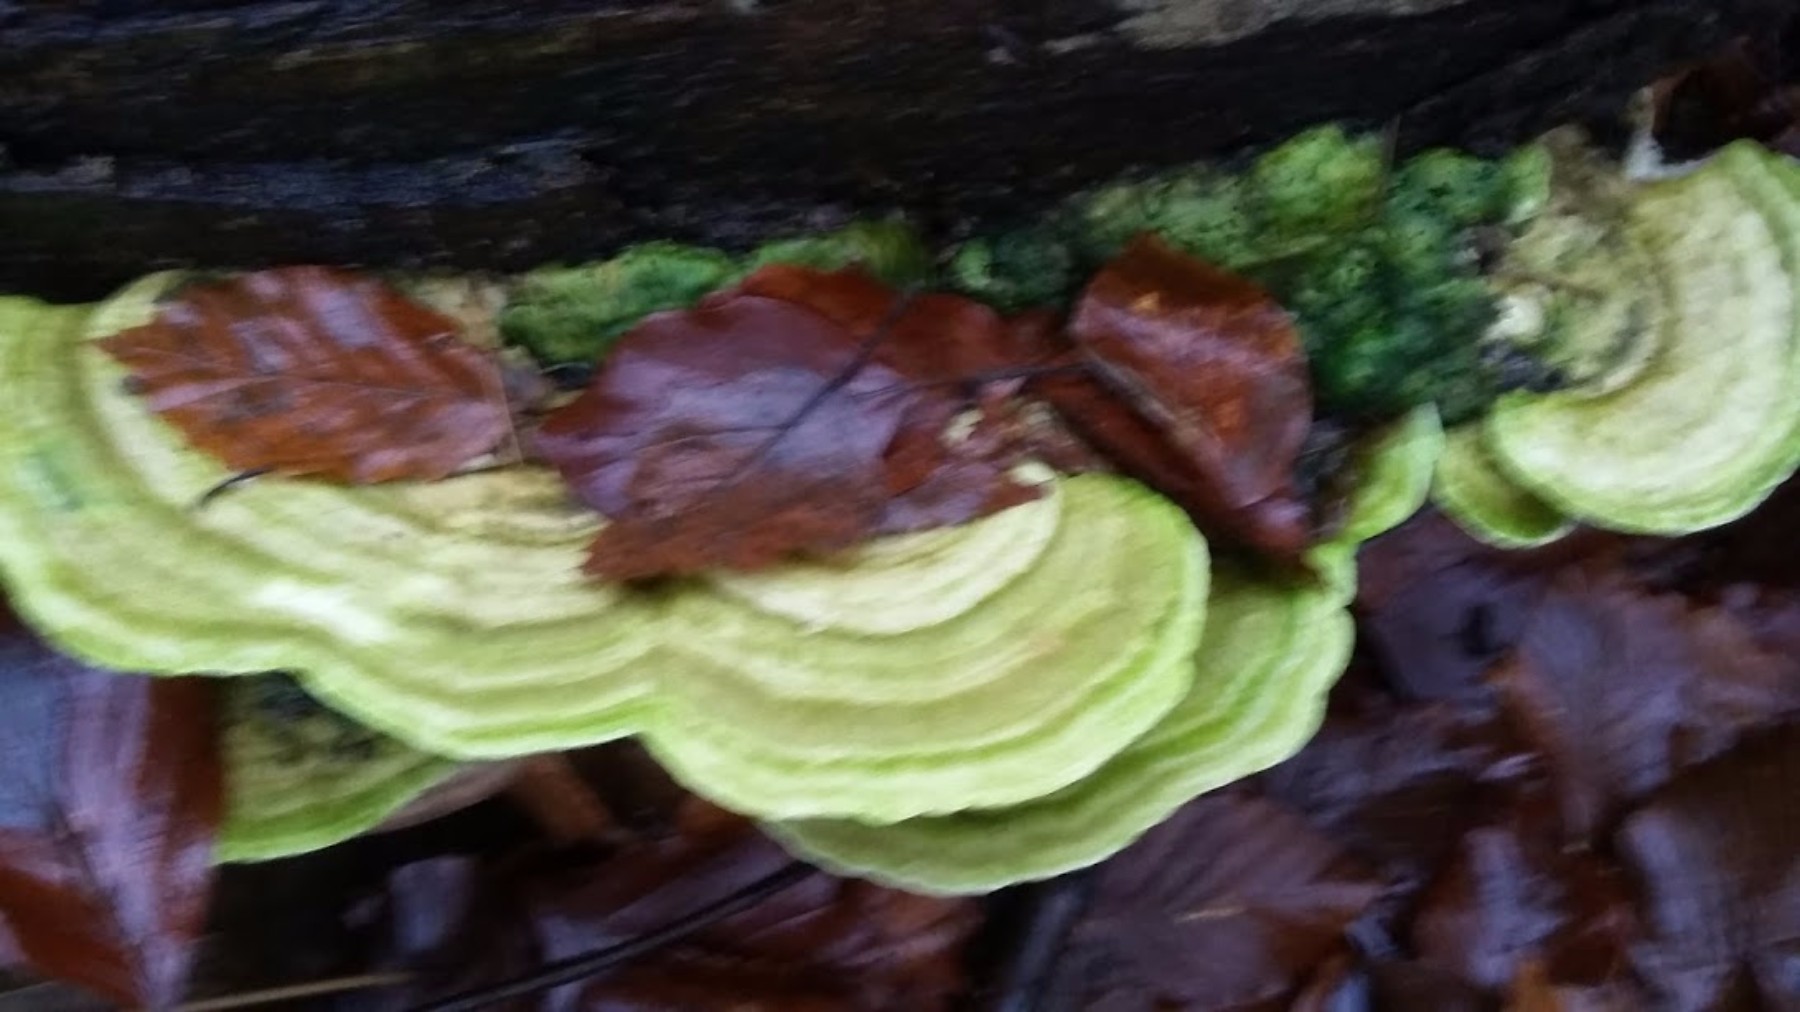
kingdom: Fungi
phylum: Basidiomycota
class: Agaricomycetes
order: Polyporales
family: Polyporaceae
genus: Trametes
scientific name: Trametes gibbosa
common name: puklet læderporesvamp
